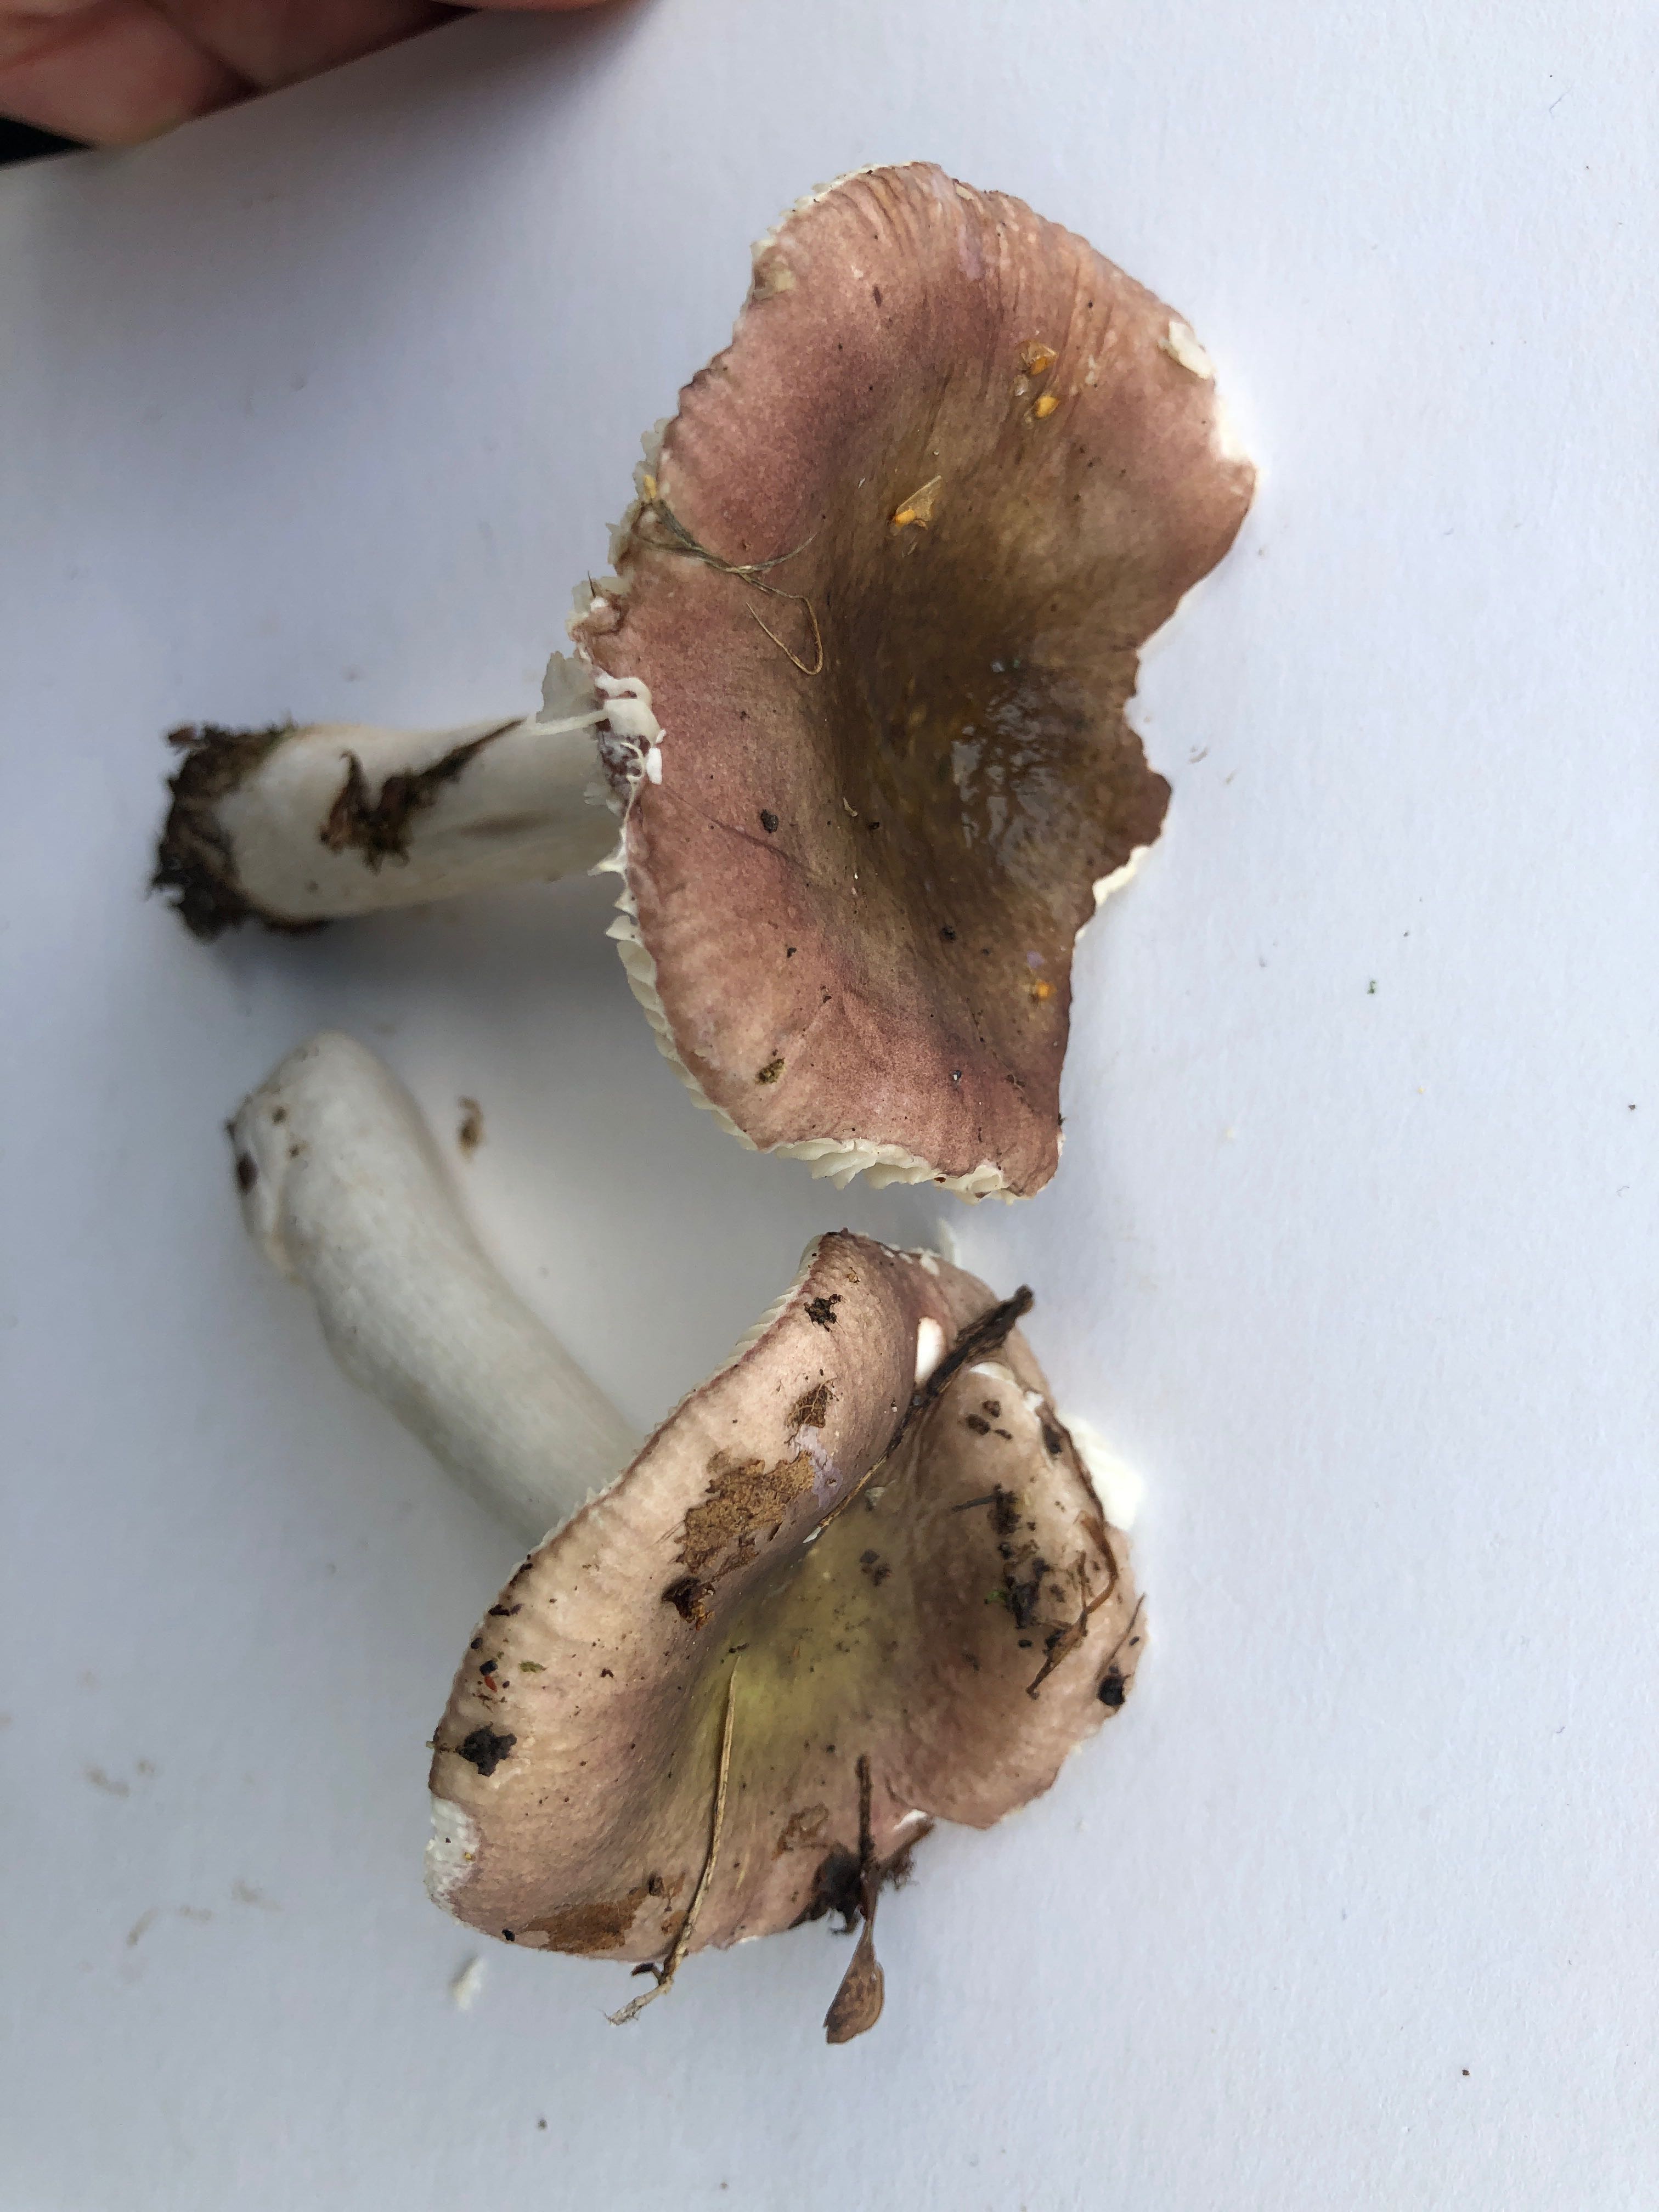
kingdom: Fungi
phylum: Basidiomycota
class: Agaricomycetes
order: Russulales
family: Russulaceae
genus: Russula
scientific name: Russula
